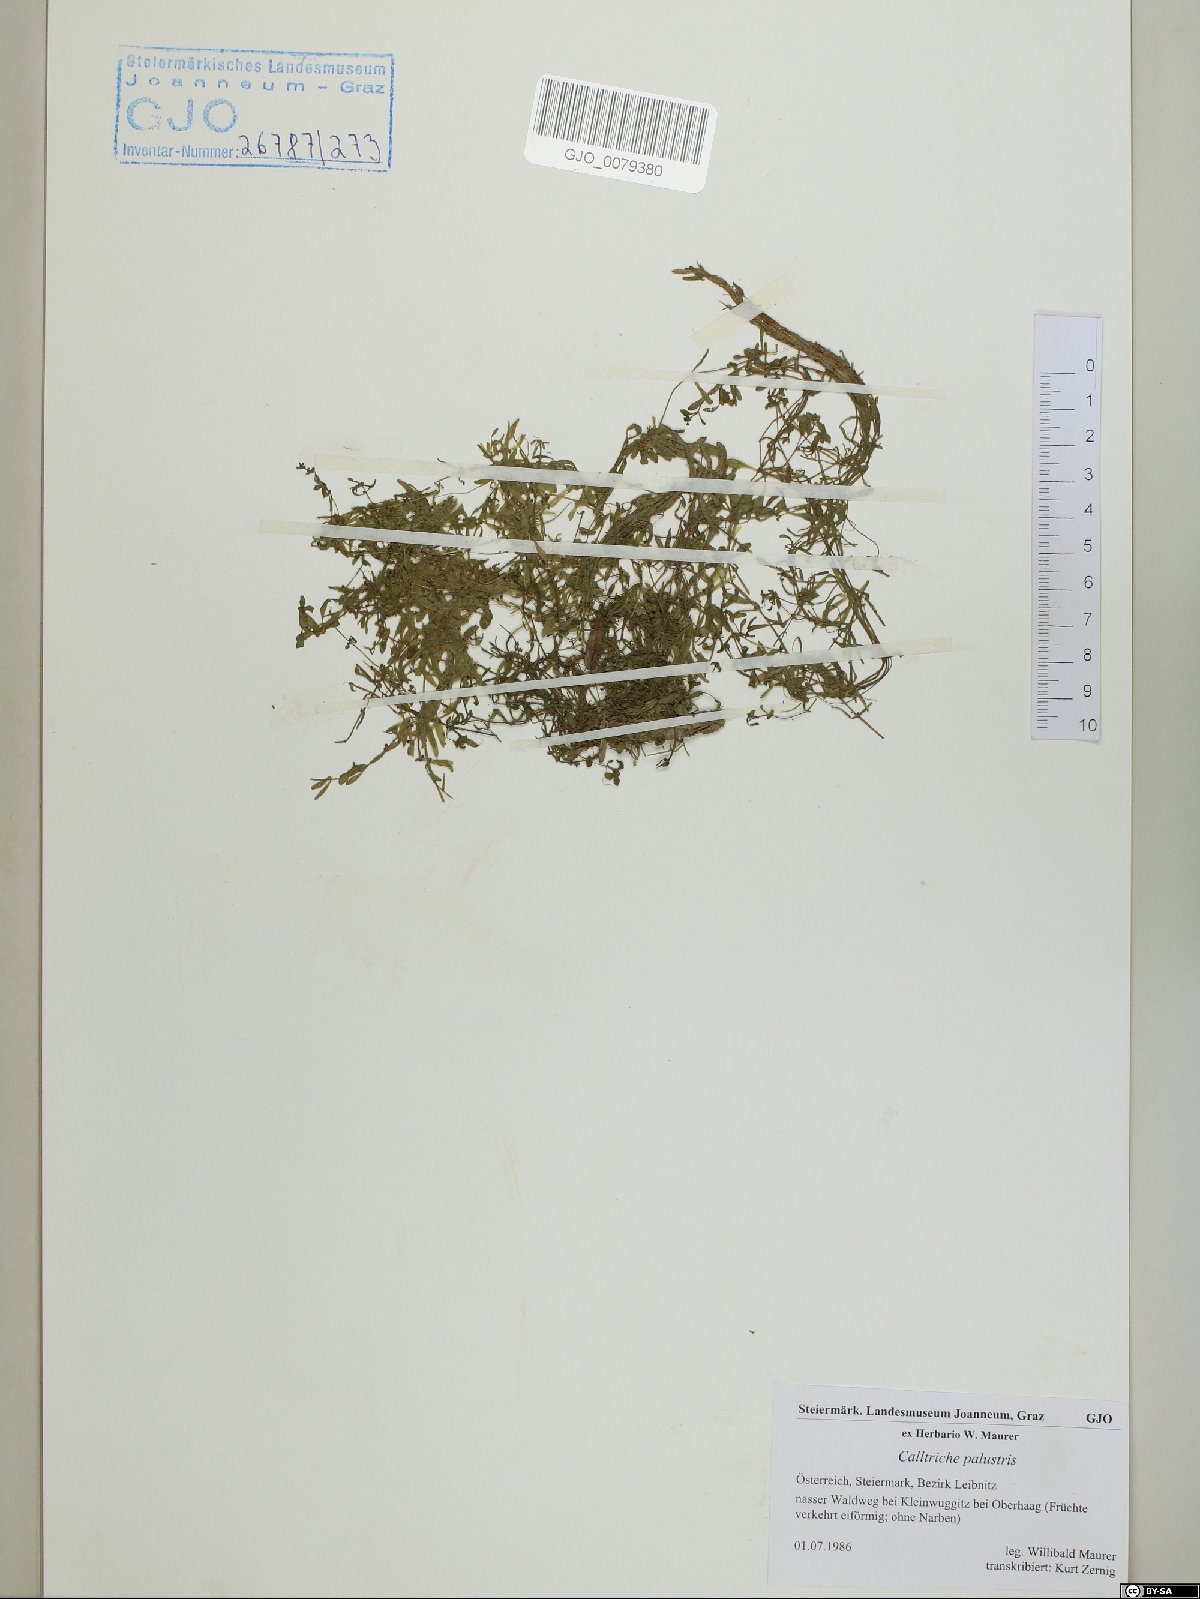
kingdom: Plantae
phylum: Tracheophyta
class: Magnoliopsida
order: Lamiales
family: Plantaginaceae
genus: Callitriche
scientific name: Callitriche palustris
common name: Spring water-starwort
